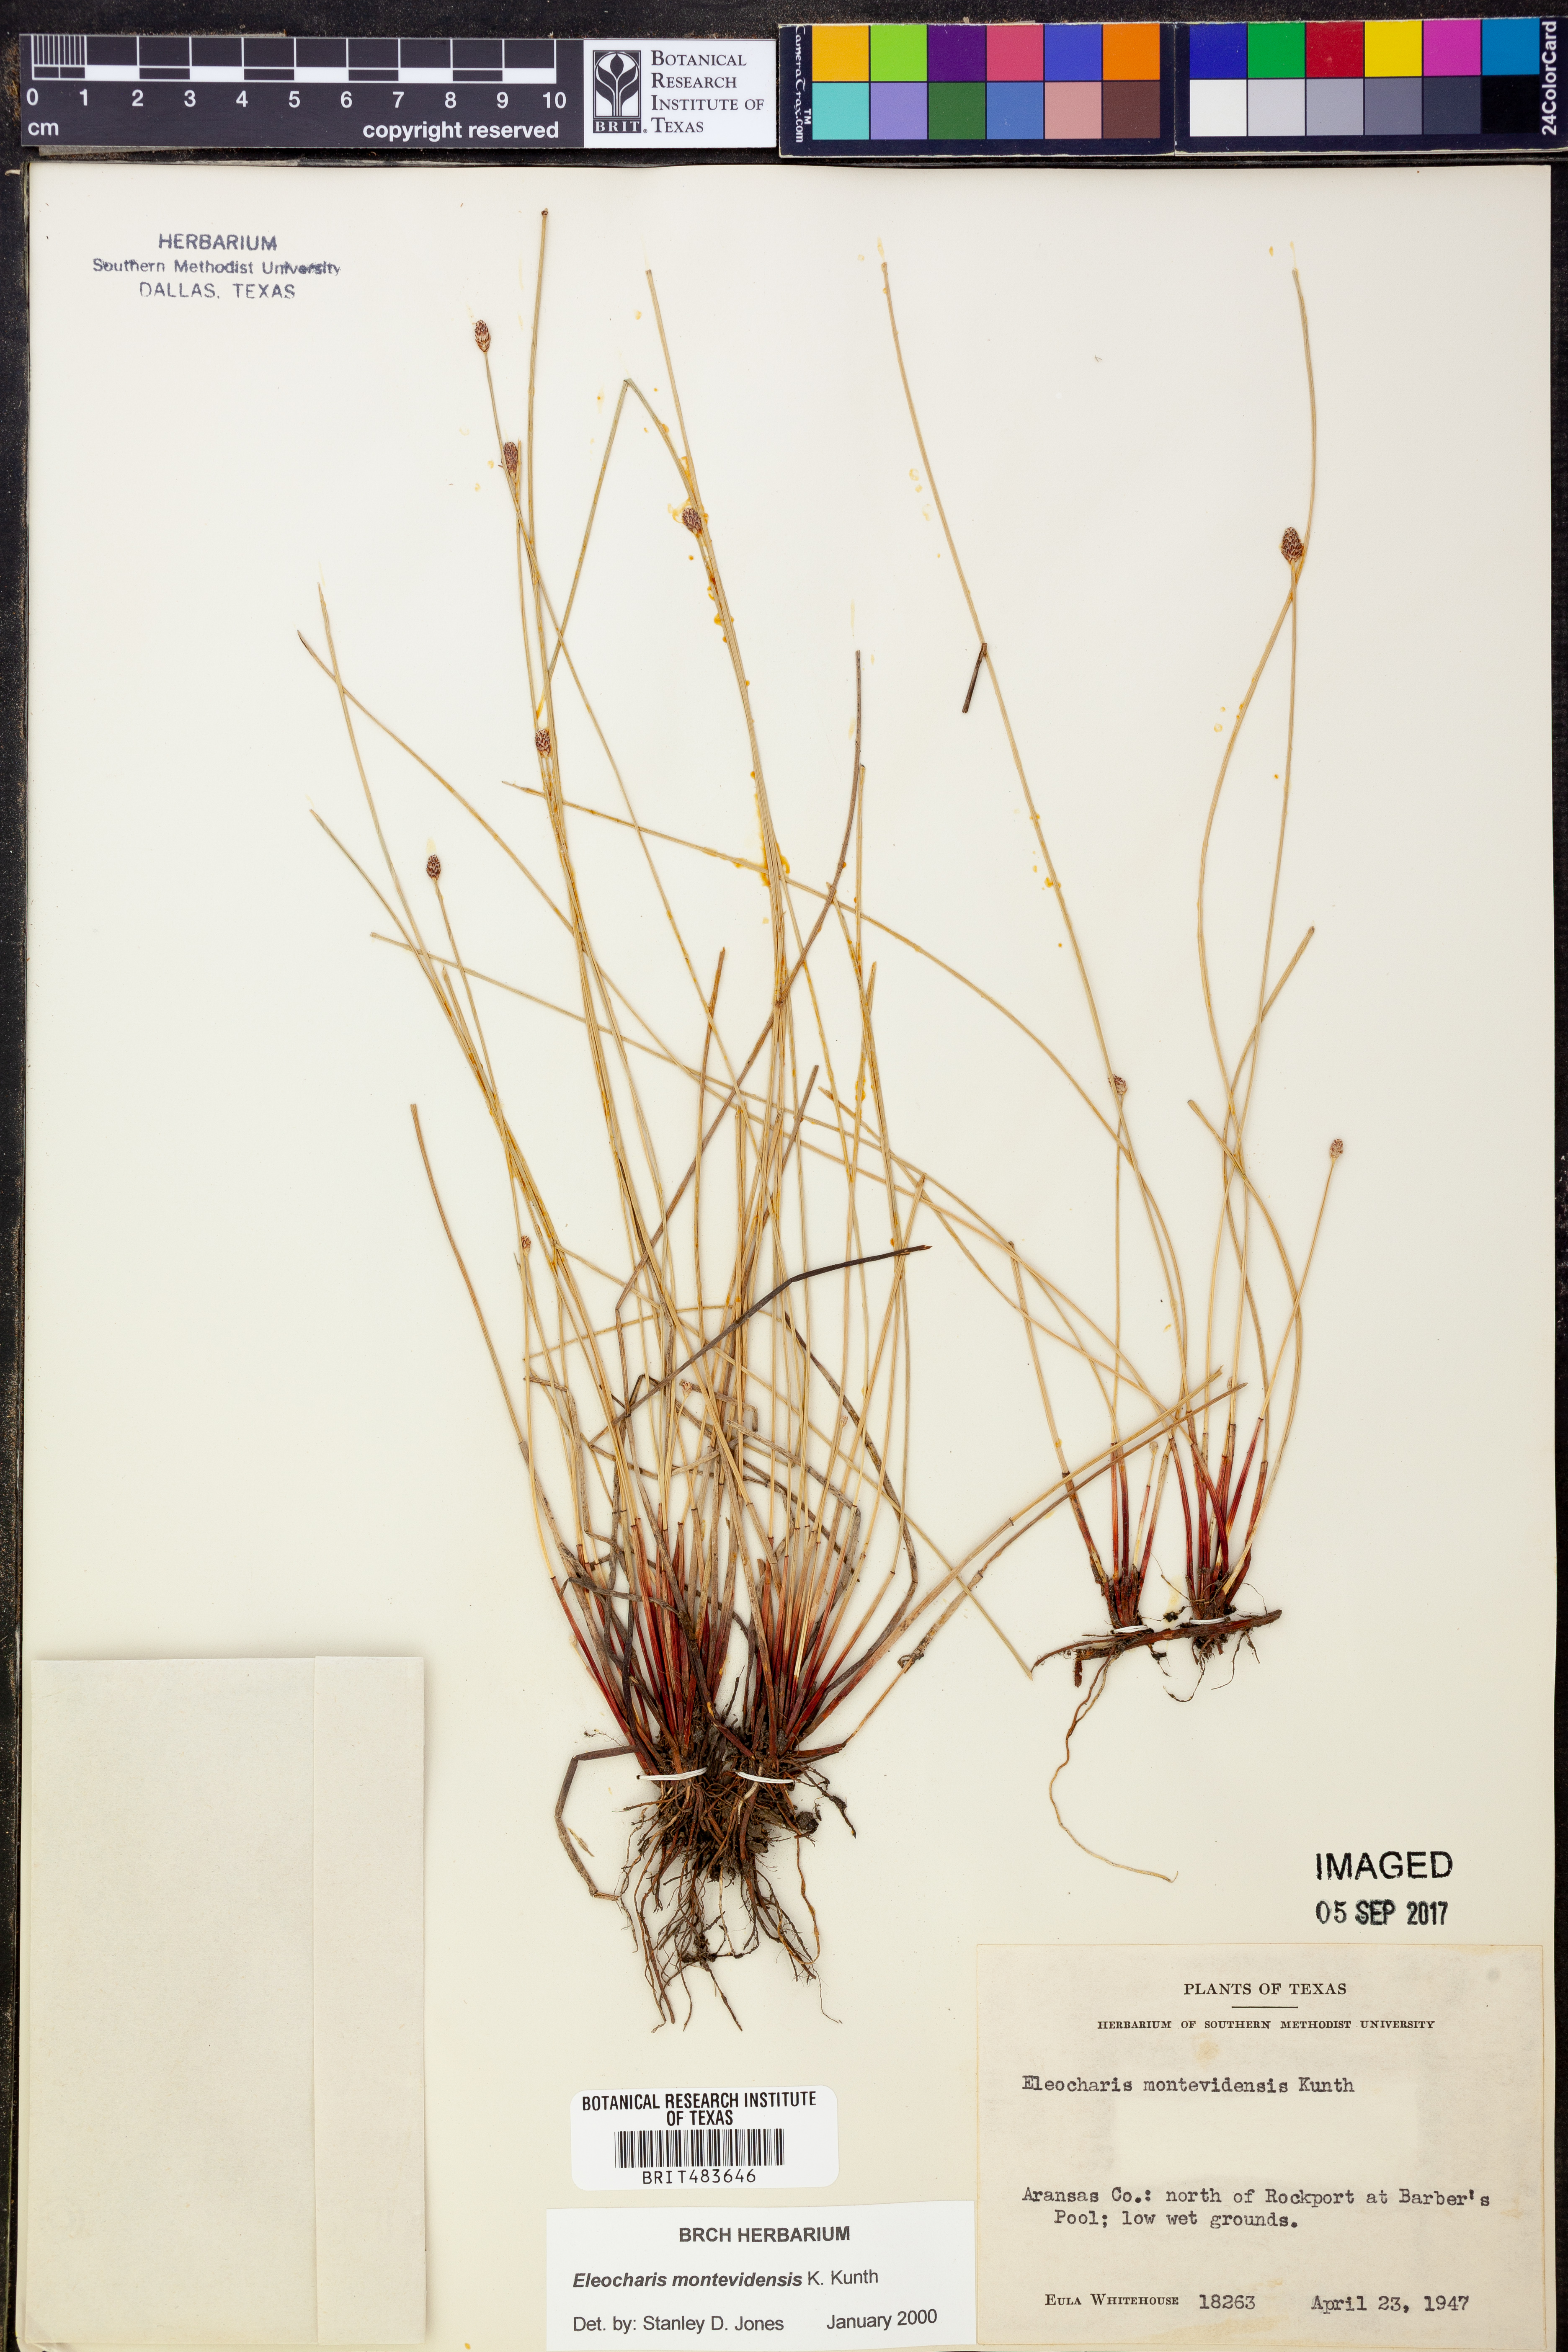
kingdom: Plantae
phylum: Tracheophyta
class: Liliopsida
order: Poales
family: Cyperaceae
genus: Eleocharis
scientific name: Eleocharis montevidensis
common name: Sand spike-rush
